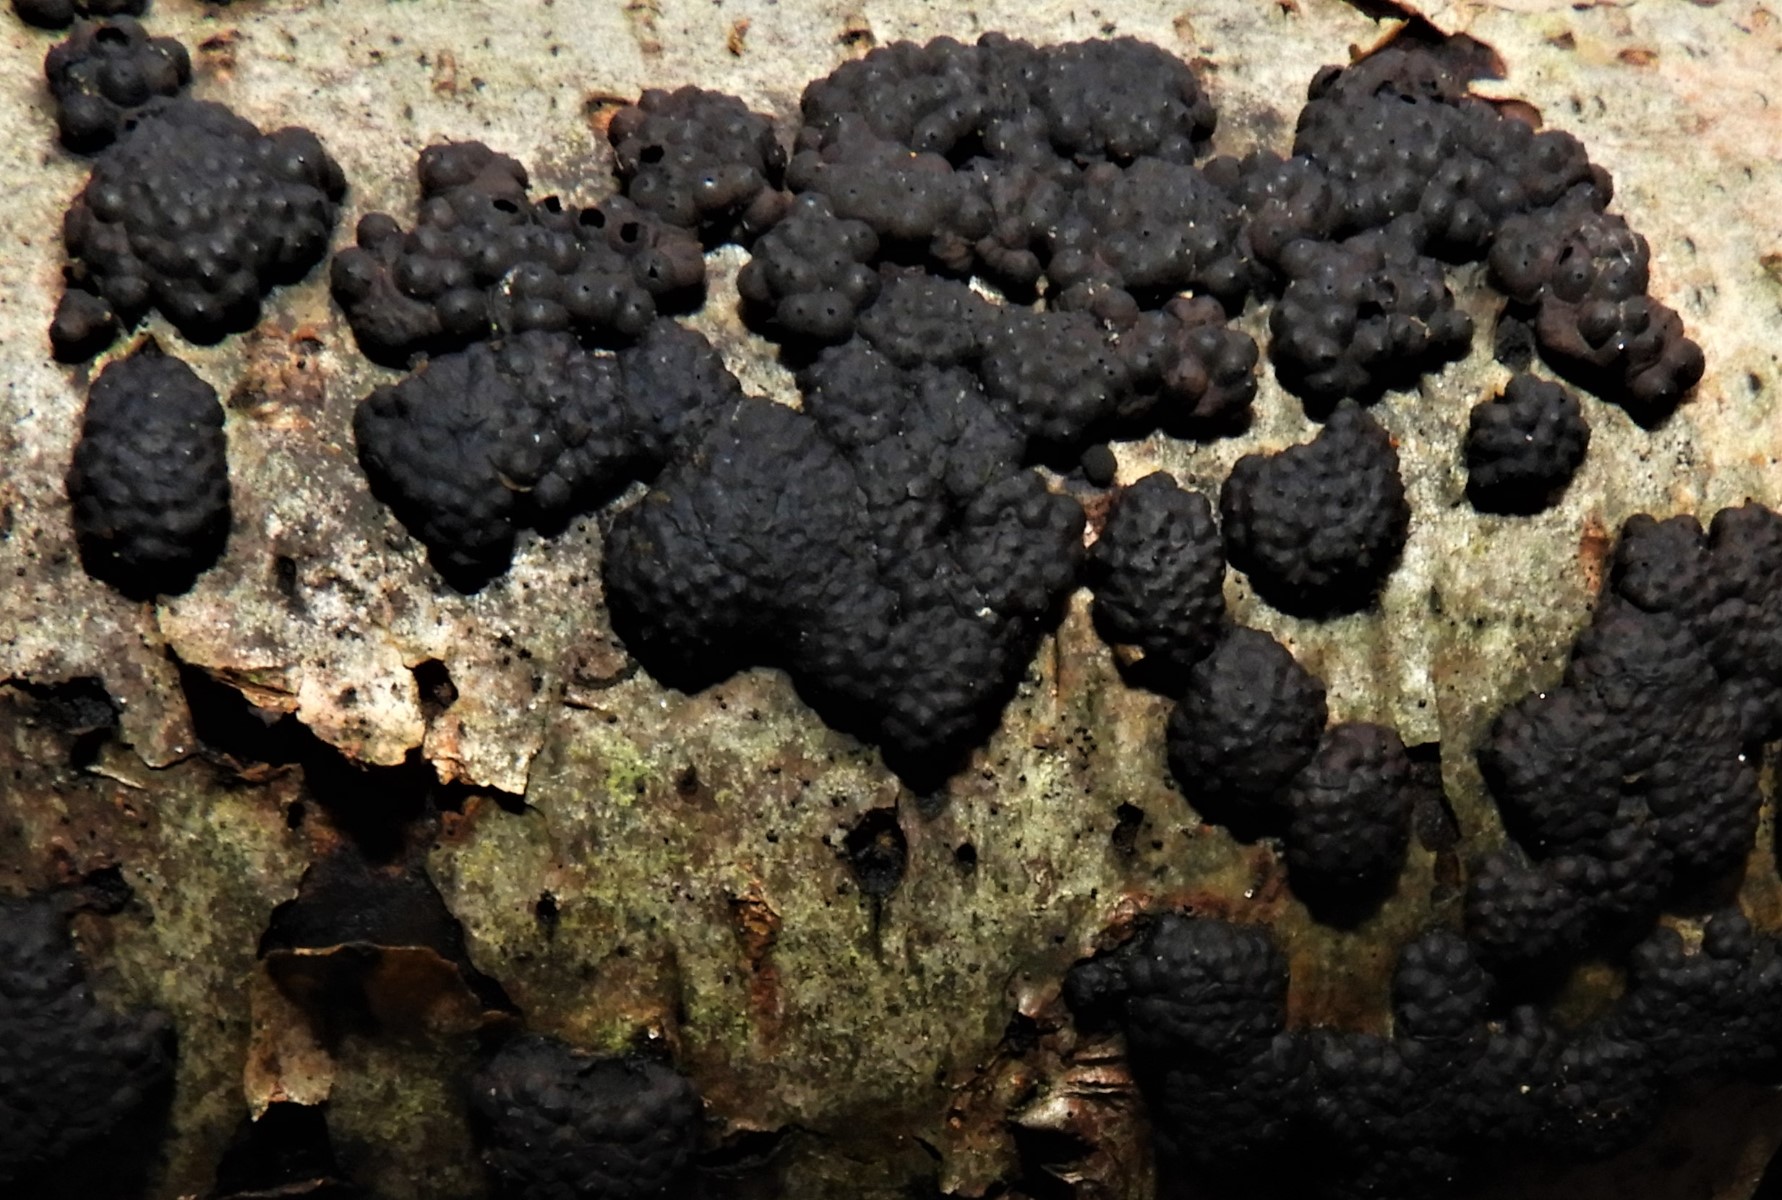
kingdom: Fungi
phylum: Ascomycota
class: Sordariomycetes
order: Xylariales
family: Hypoxylaceae
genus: Jackrogersella
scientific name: Jackrogersella multiformis
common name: foranderlig kulbær
